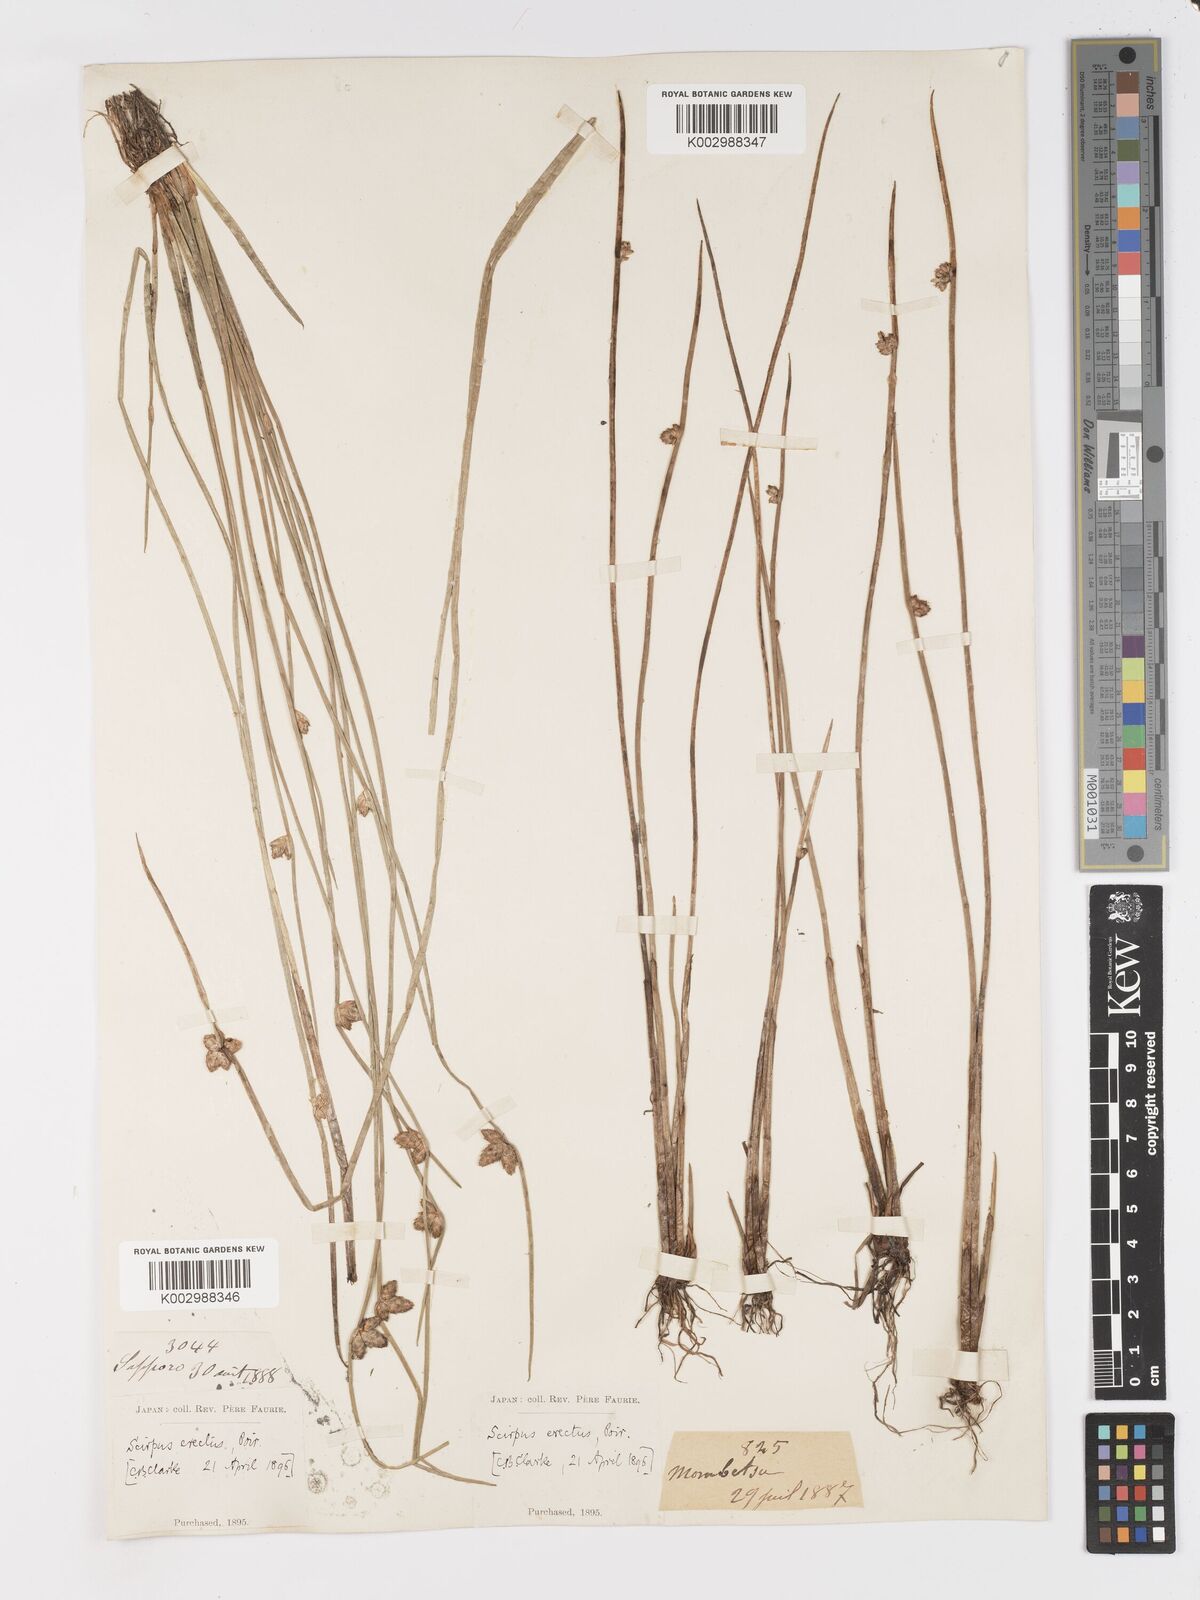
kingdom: Plantae
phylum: Tracheophyta
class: Liliopsida
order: Poales
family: Cyperaceae
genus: Schoenoplectiella
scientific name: Schoenoplectiella juncoides
